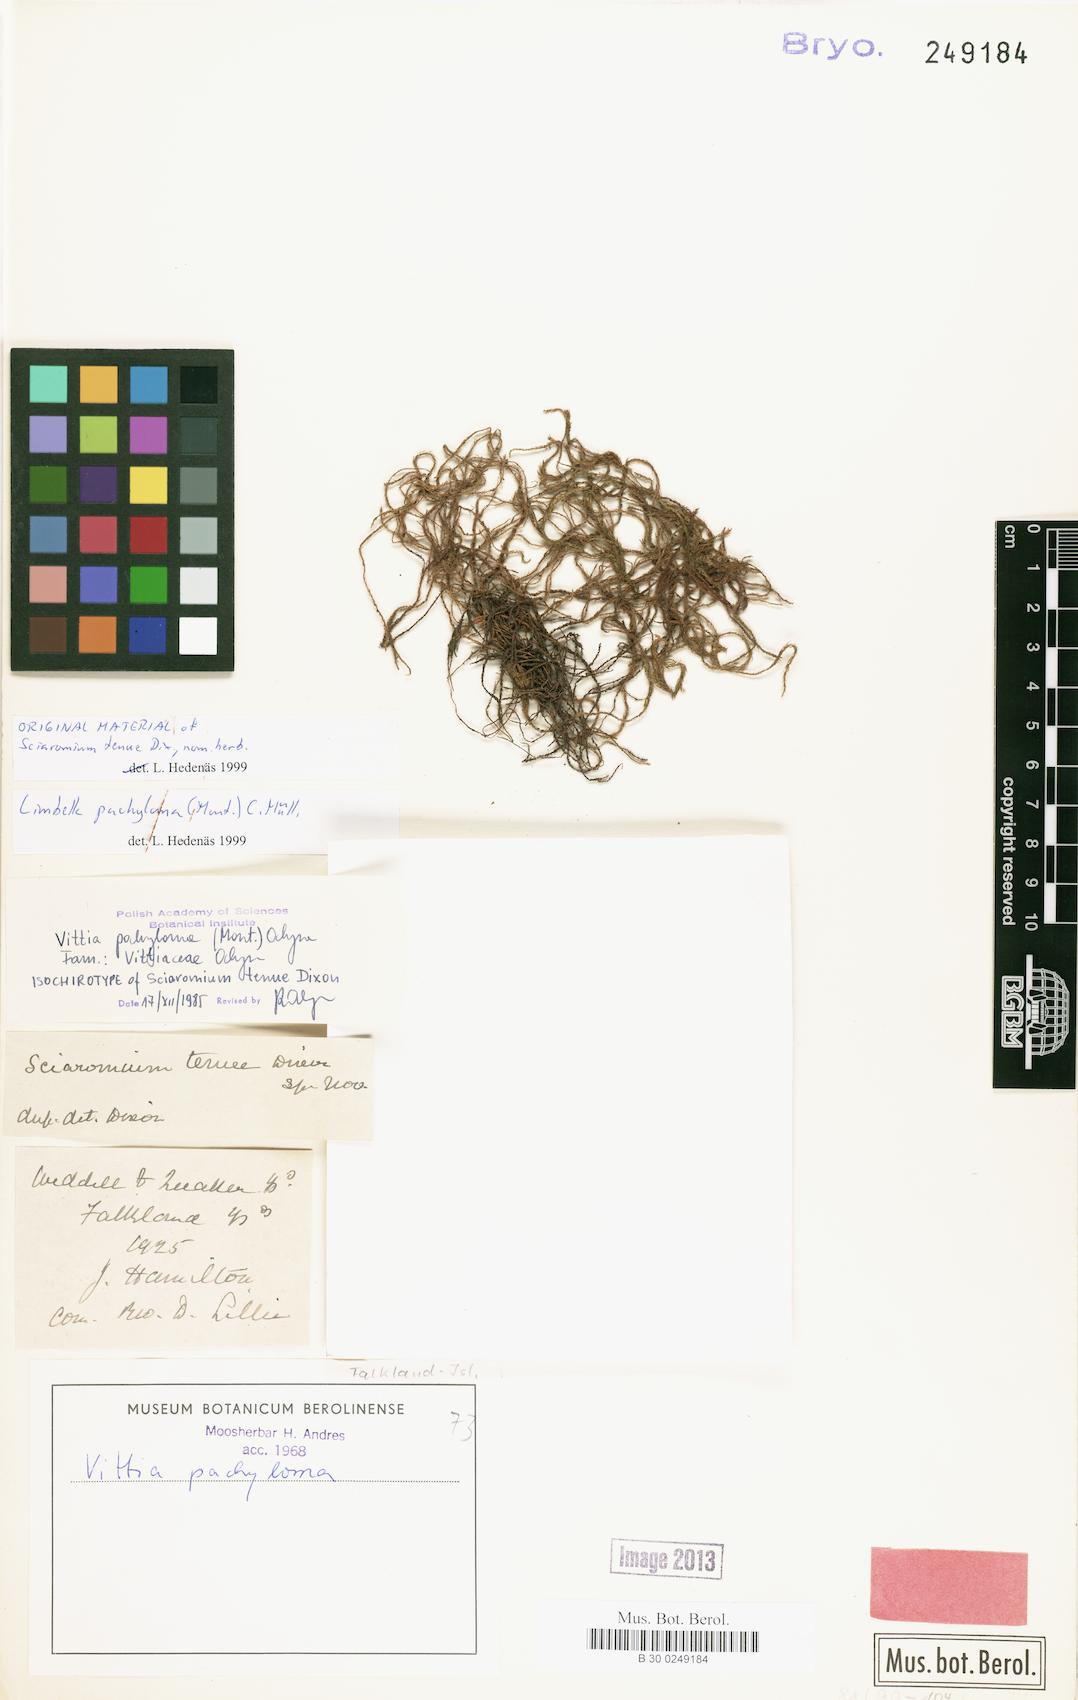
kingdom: Plantae
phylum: Bryophyta
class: Bryopsida
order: Hypnales
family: Neckeraceae
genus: Limbella
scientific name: Limbella
